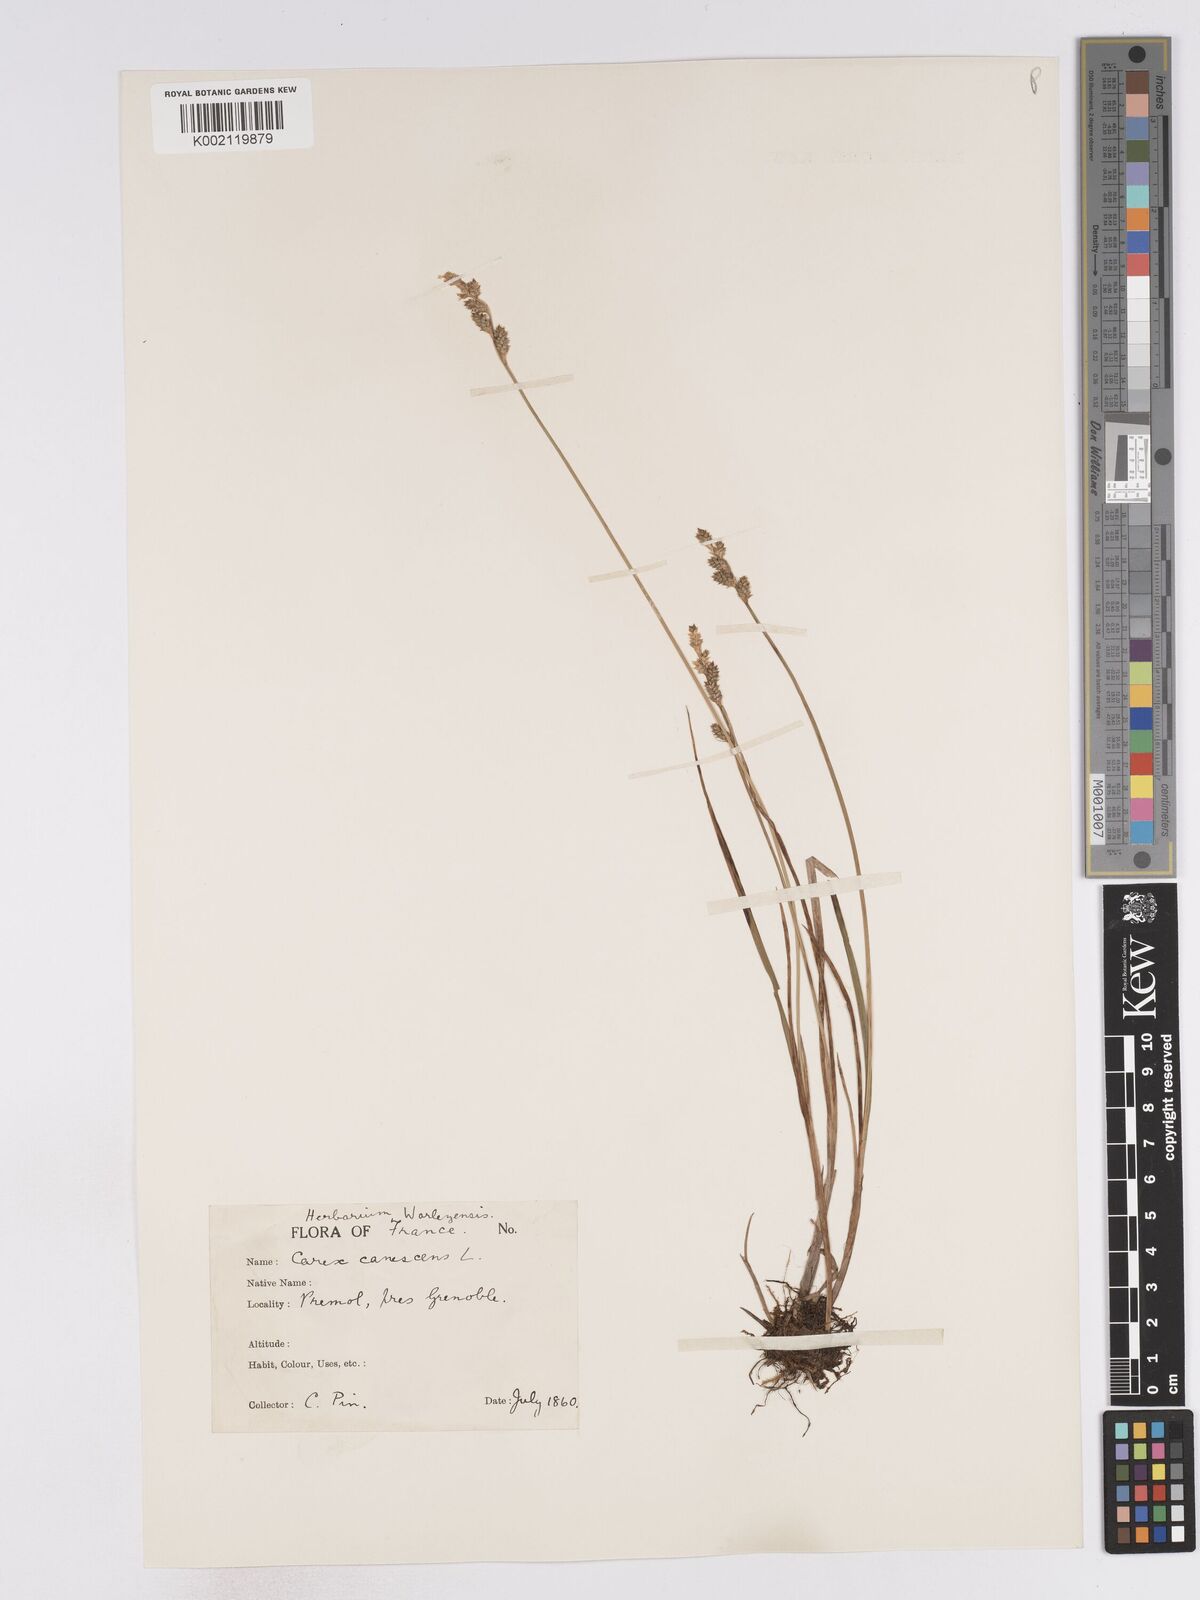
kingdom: Plantae
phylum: Tracheophyta
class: Liliopsida
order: Poales
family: Cyperaceae
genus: Carex
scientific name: Carex curta
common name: White sedge
